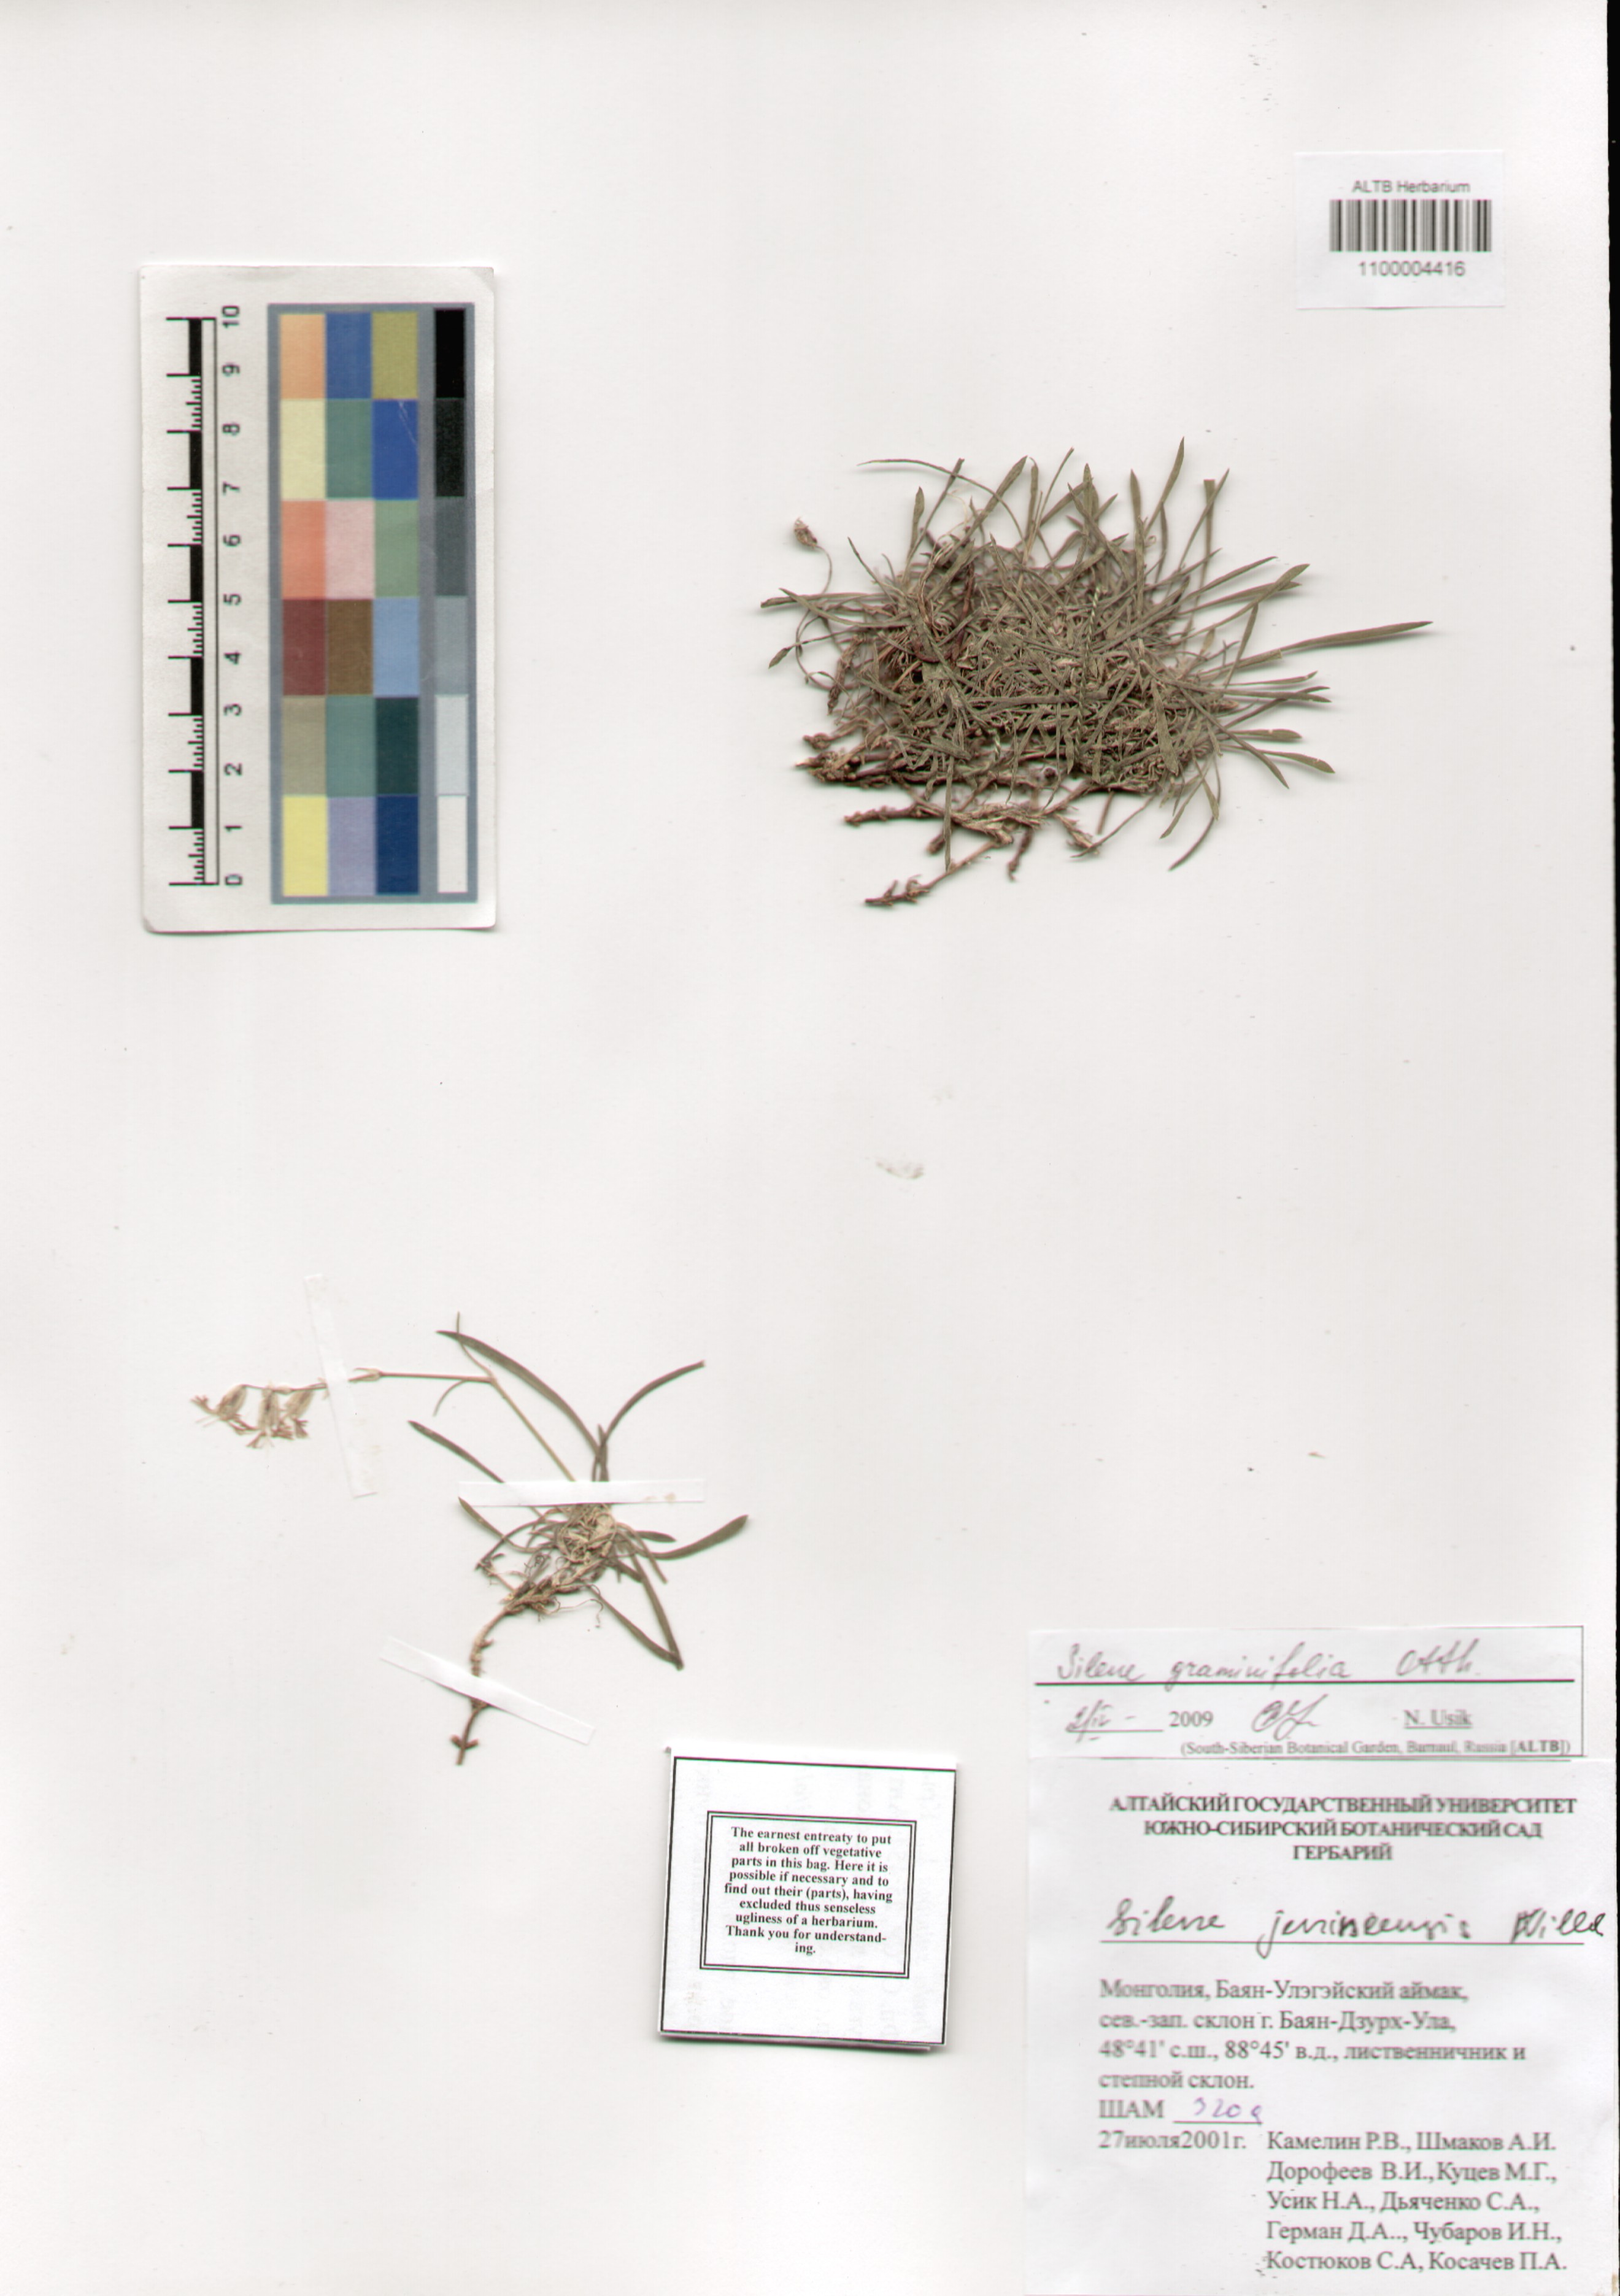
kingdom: Plantae
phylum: Tracheophyta
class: Magnoliopsida
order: Caryophyllales
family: Caryophyllaceae
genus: Silene
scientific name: Silene graminifolia
